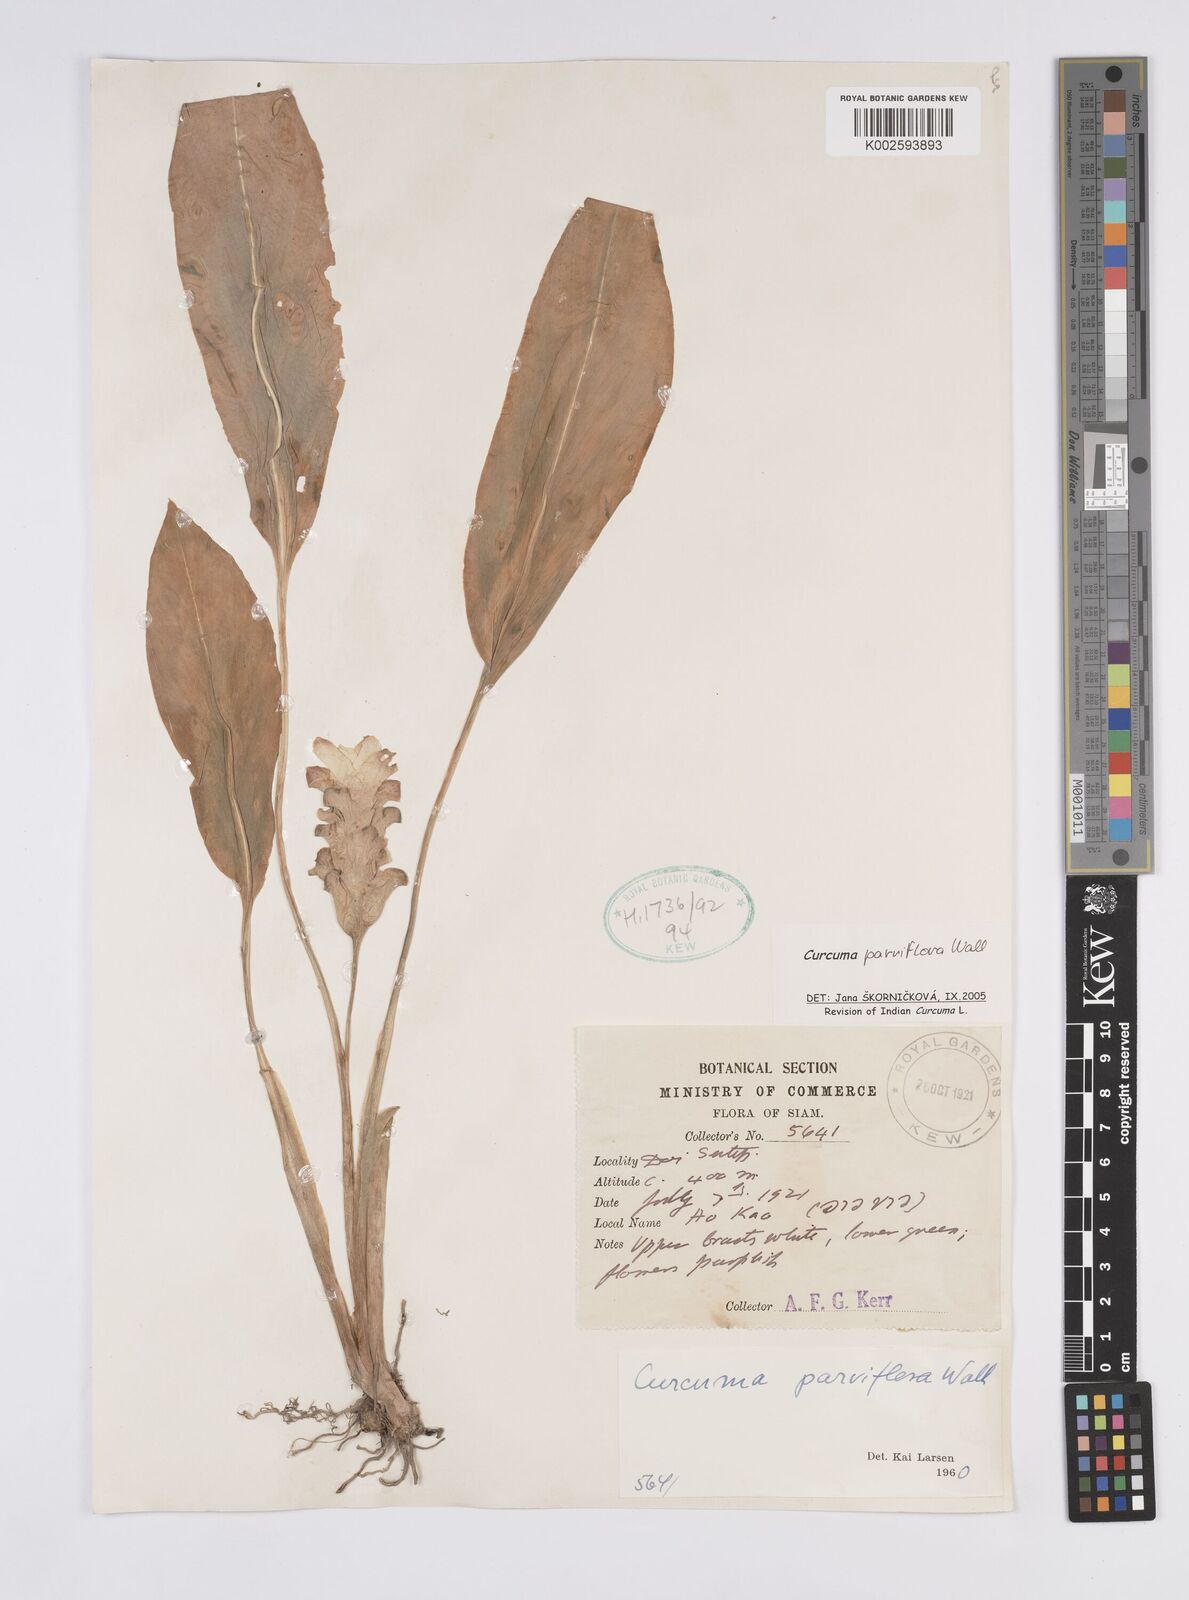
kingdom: Plantae
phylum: Tracheophyta
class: Liliopsida
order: Zingiberales
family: Zingiberaceae
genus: Curcuma
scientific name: Curcuma parviflora
